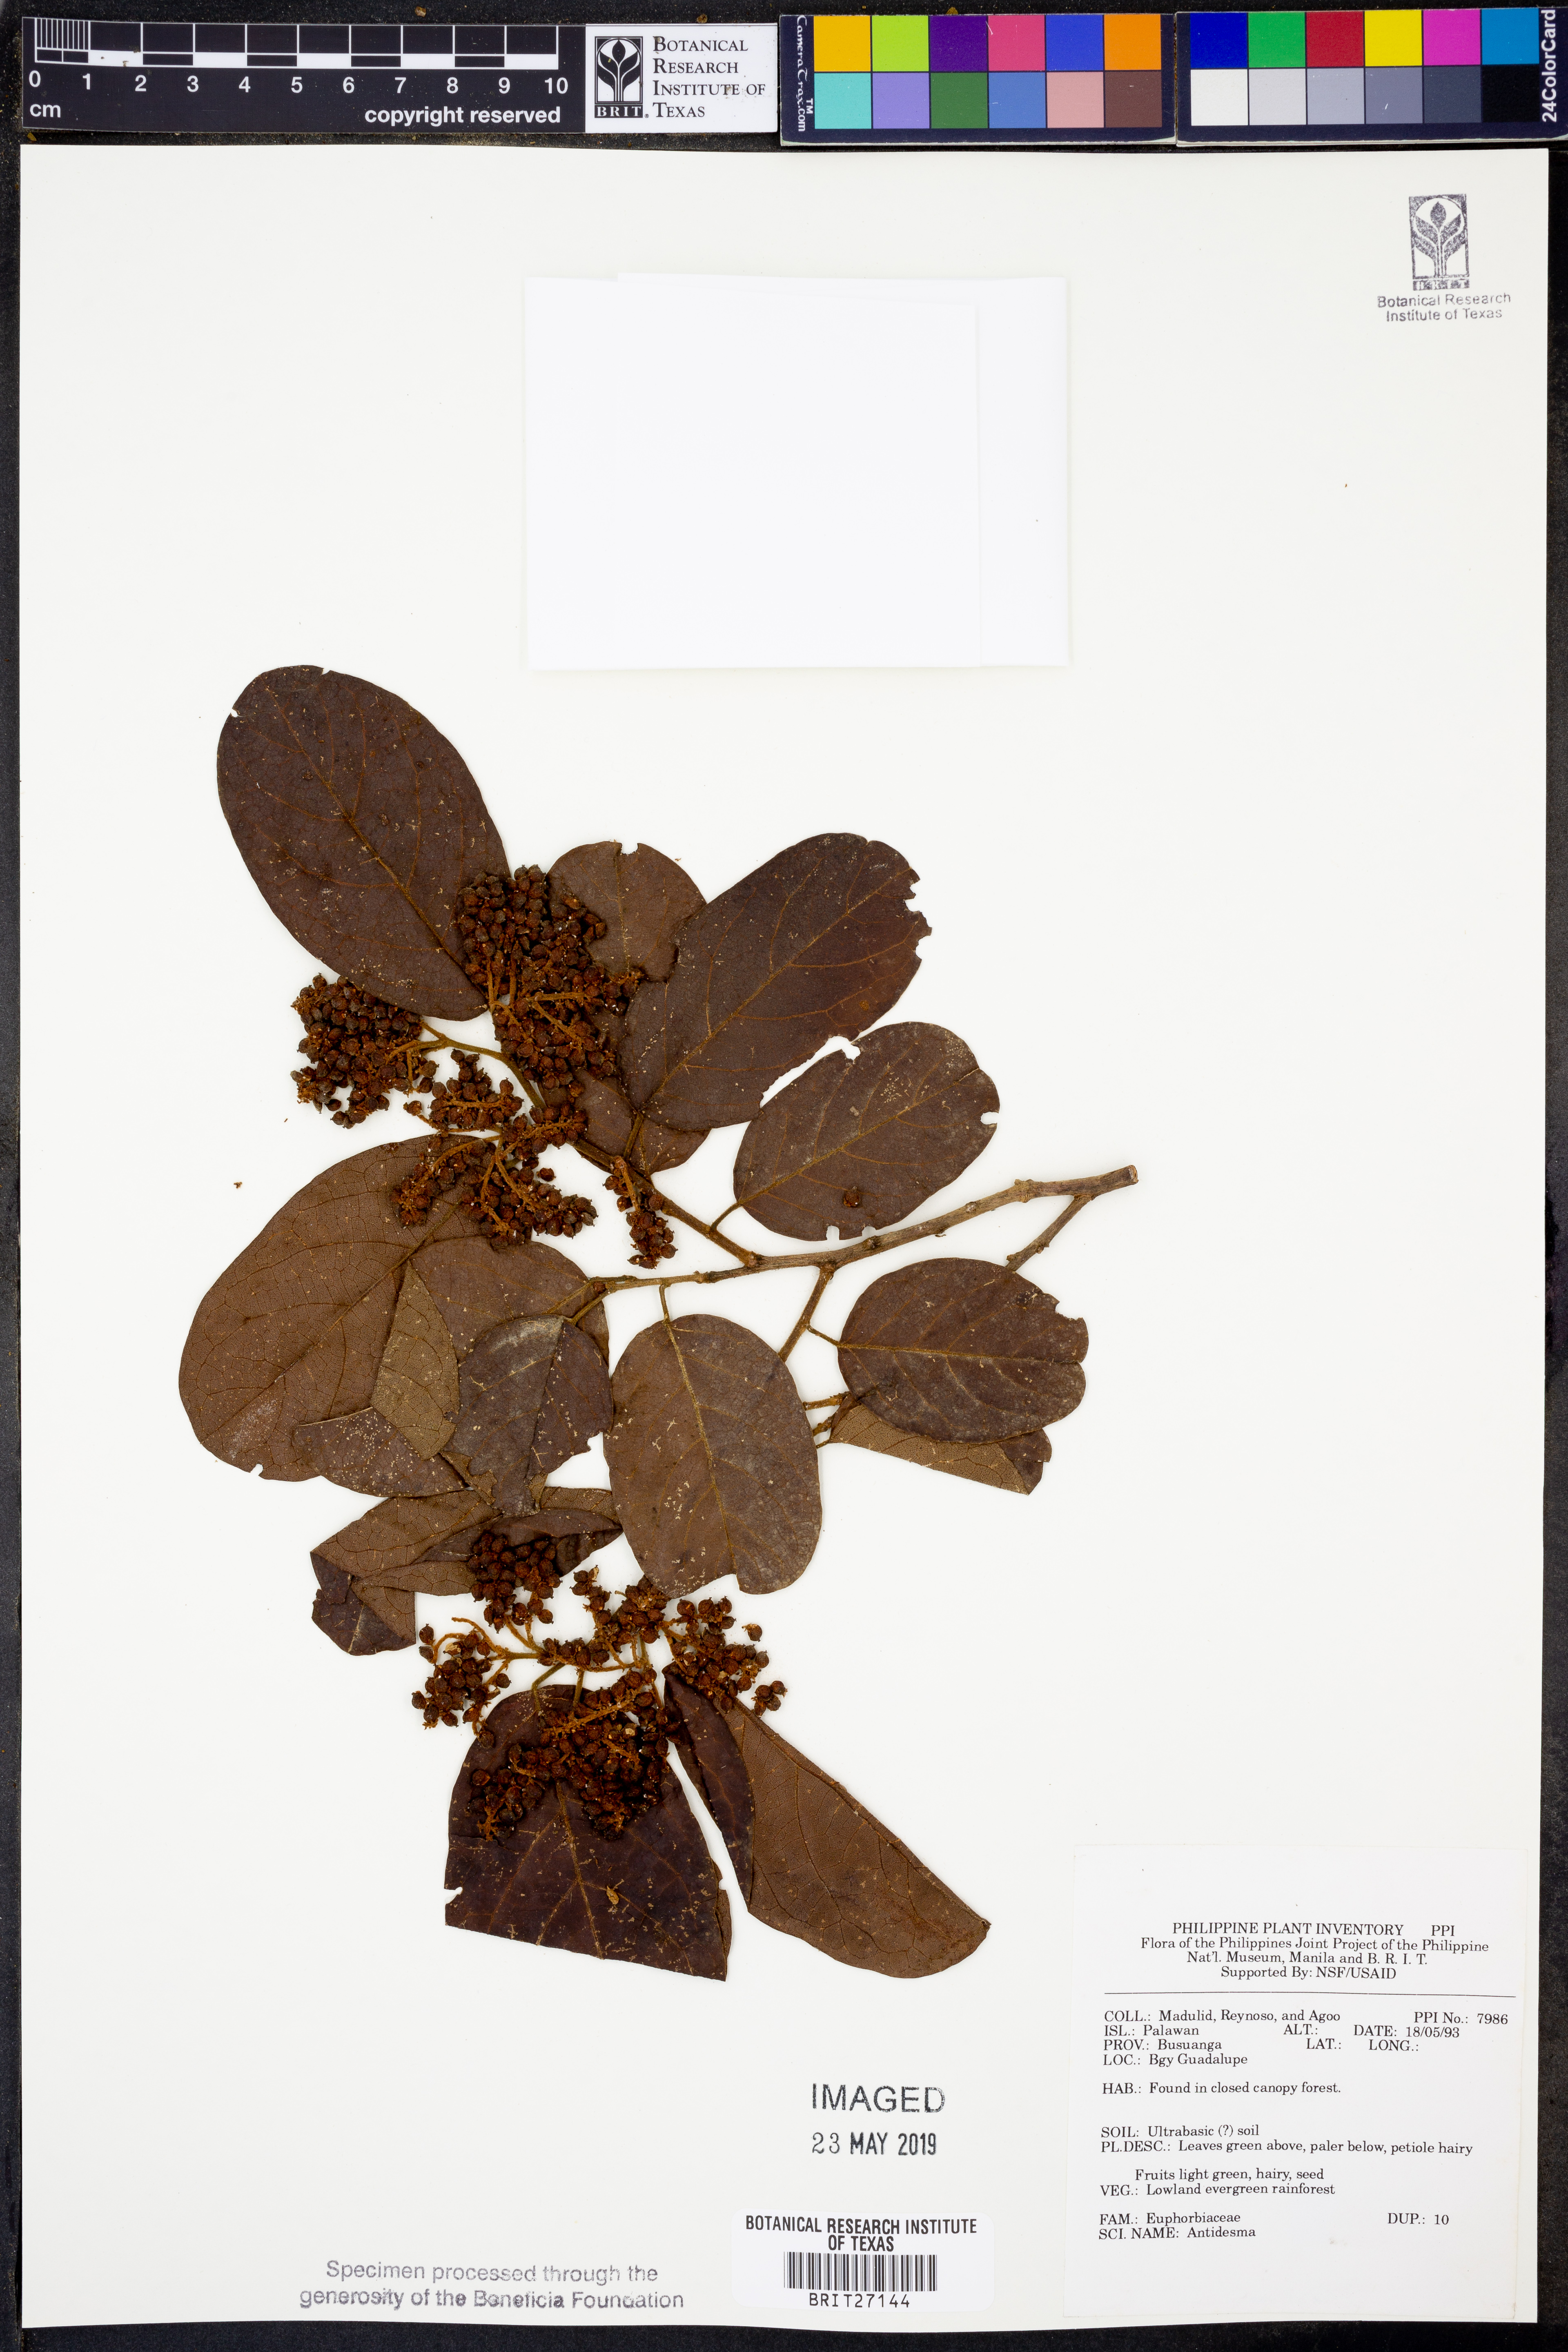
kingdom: Plantae
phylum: Tracheophyta
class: Magnoliopsida
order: Malpighiales
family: Phyllanthaceae
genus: Antidesma
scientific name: Antidesma
